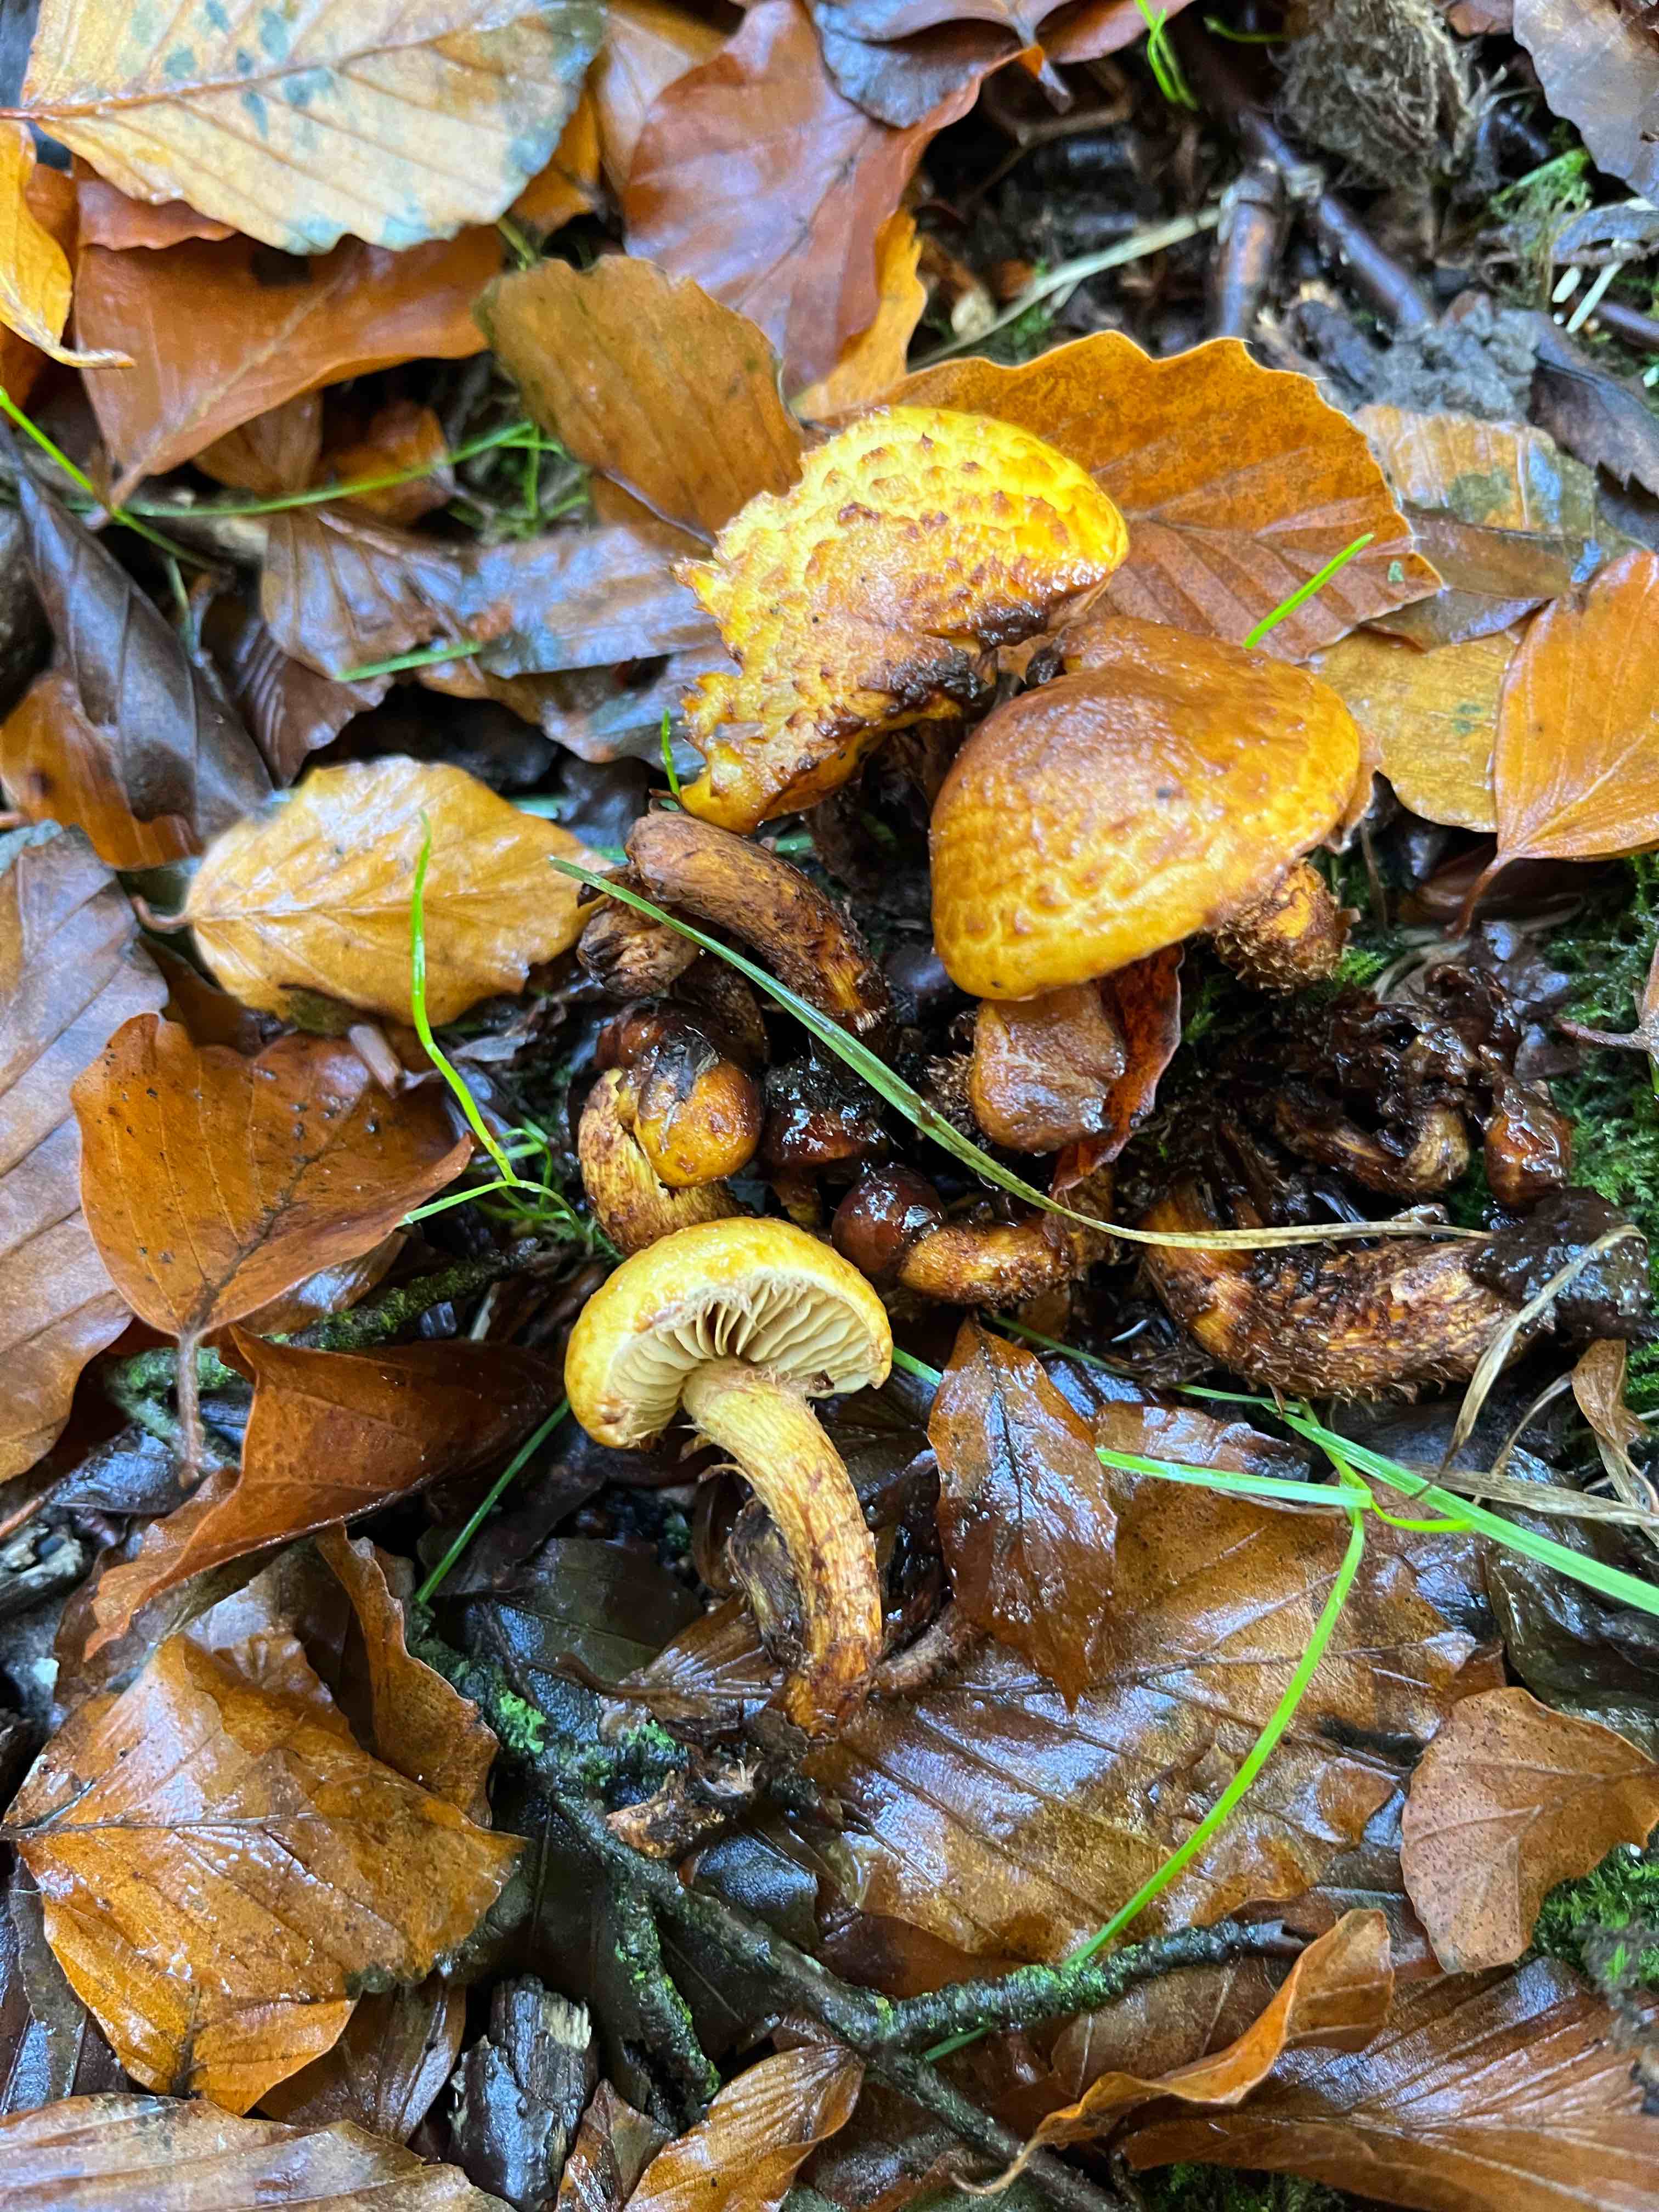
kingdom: Fungi
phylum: Basidiomycota
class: Agaricomycetes
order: Agaricales
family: Strophariaceae
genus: Pholiota
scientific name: Pholiota
